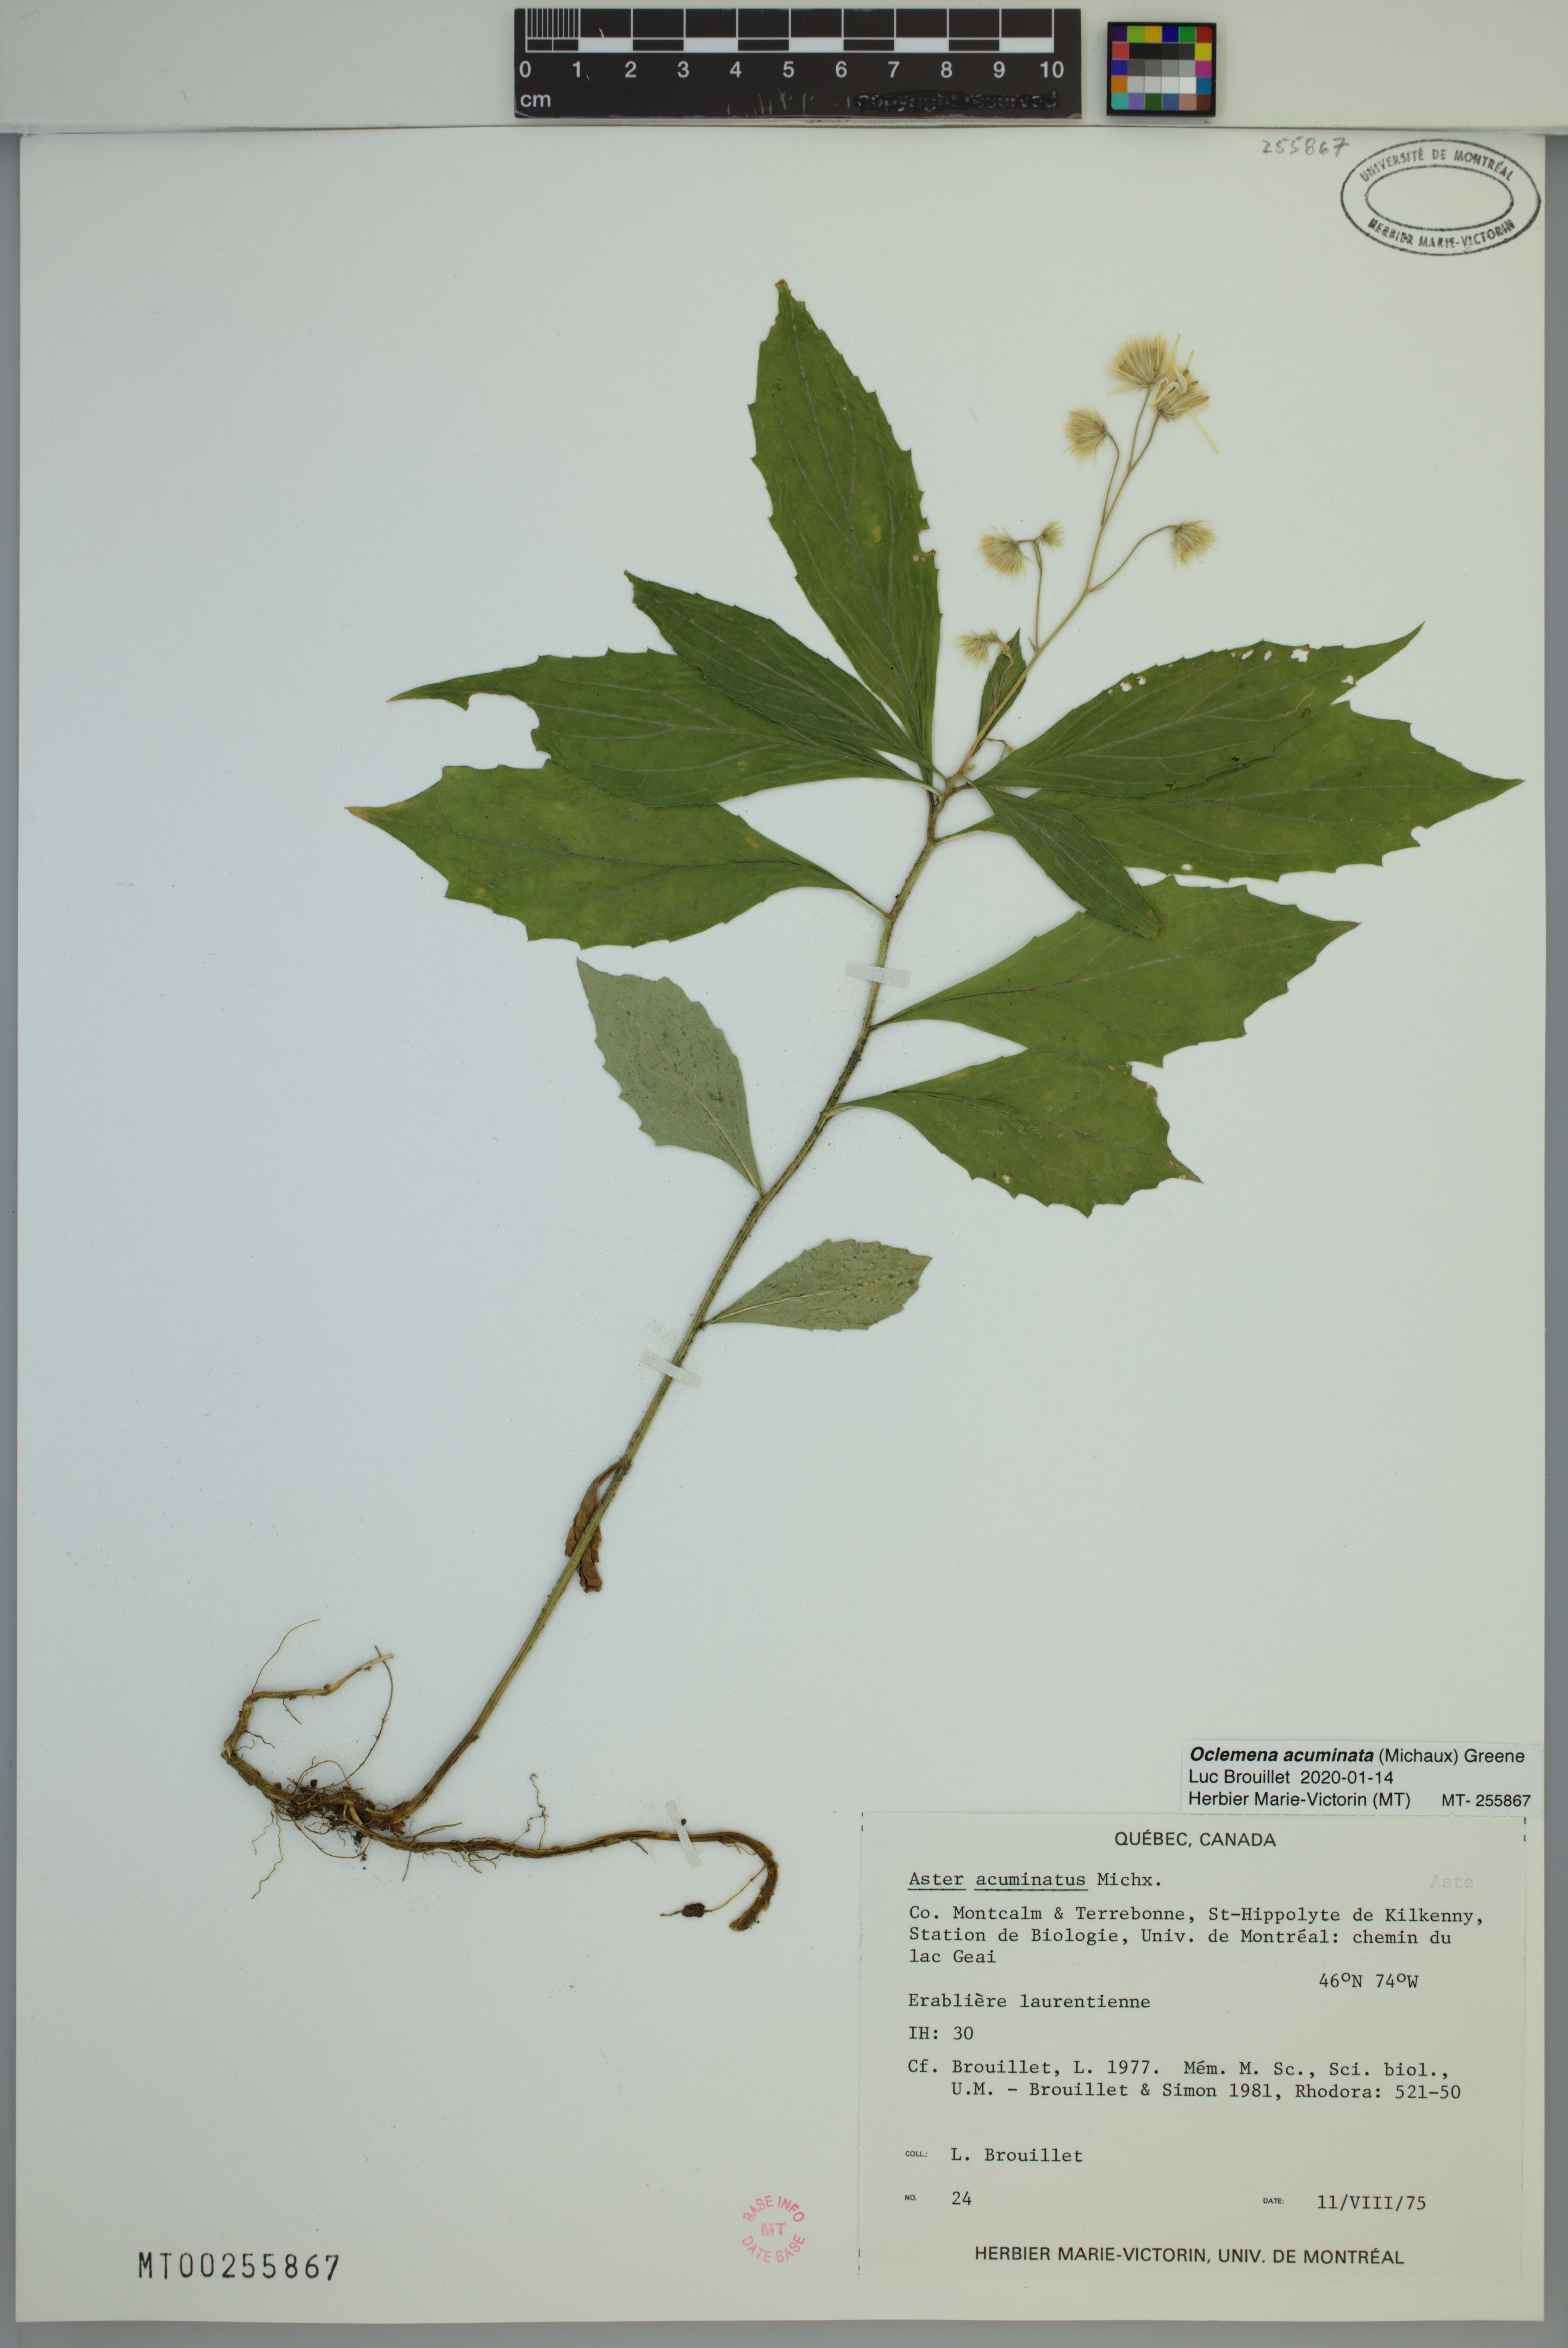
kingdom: Plantae
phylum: Tracheophyta
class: Magnoliopsida
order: Asterales
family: Asteraceae
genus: Oclemena
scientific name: Oclemena acuminata
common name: Mountain aster
